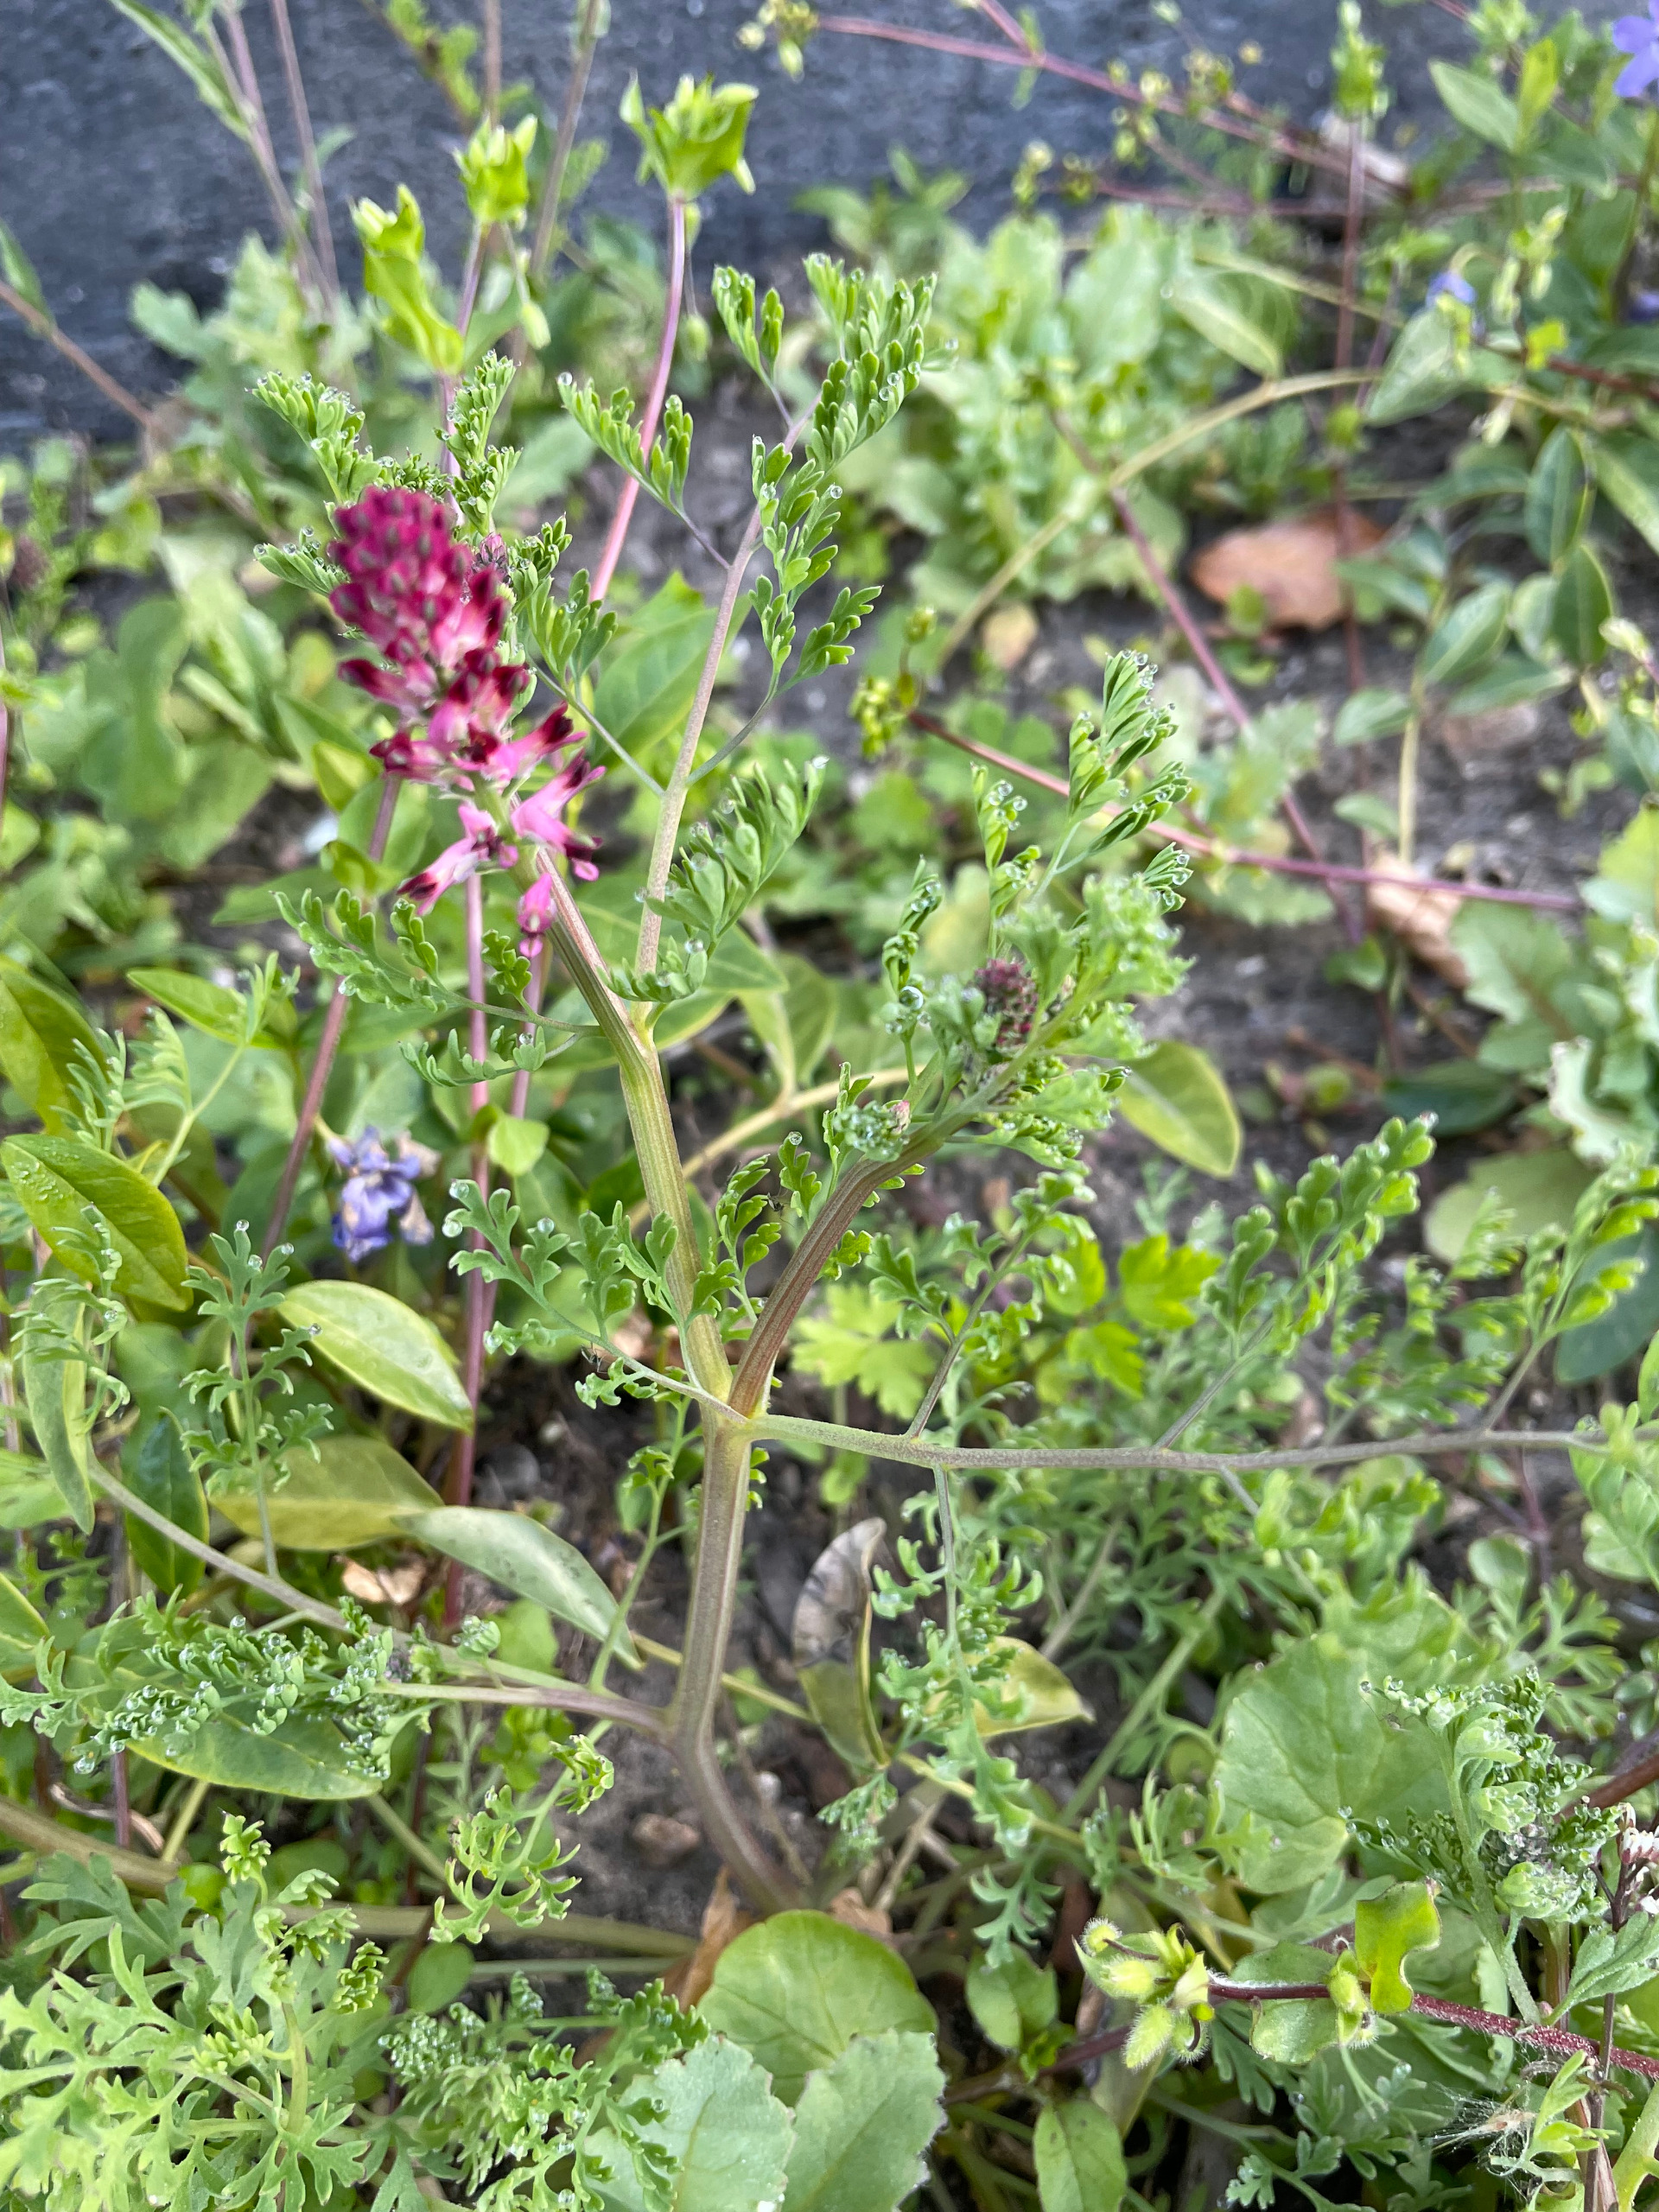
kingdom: Plantae
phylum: Tracheophyta
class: Magnoliopsida
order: Ranunculales
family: Papaveraceae
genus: Fumaria
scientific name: Fumaria officinalis
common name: Læge-jordrøg
